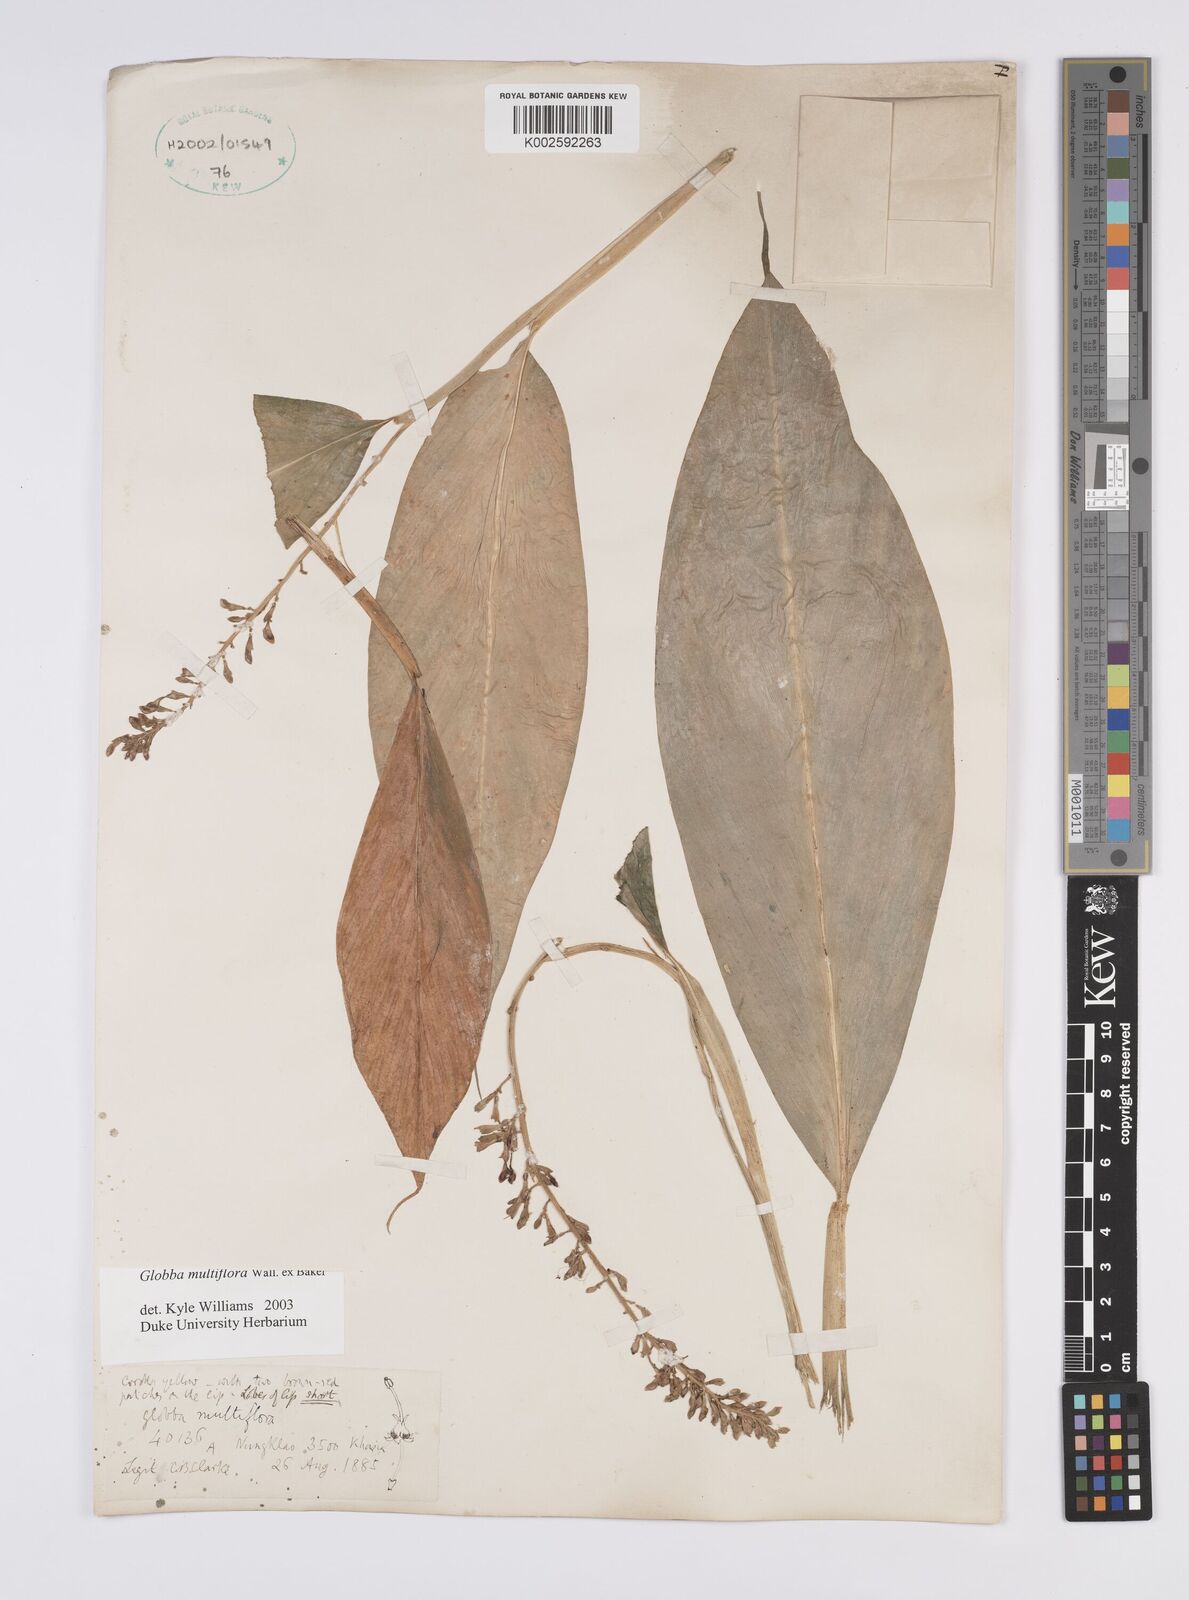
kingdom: Plantae
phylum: Tracheophyta
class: Liliopsida
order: Zingiberales
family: Zingiberaceae
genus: Globba
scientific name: Globba multiflora
